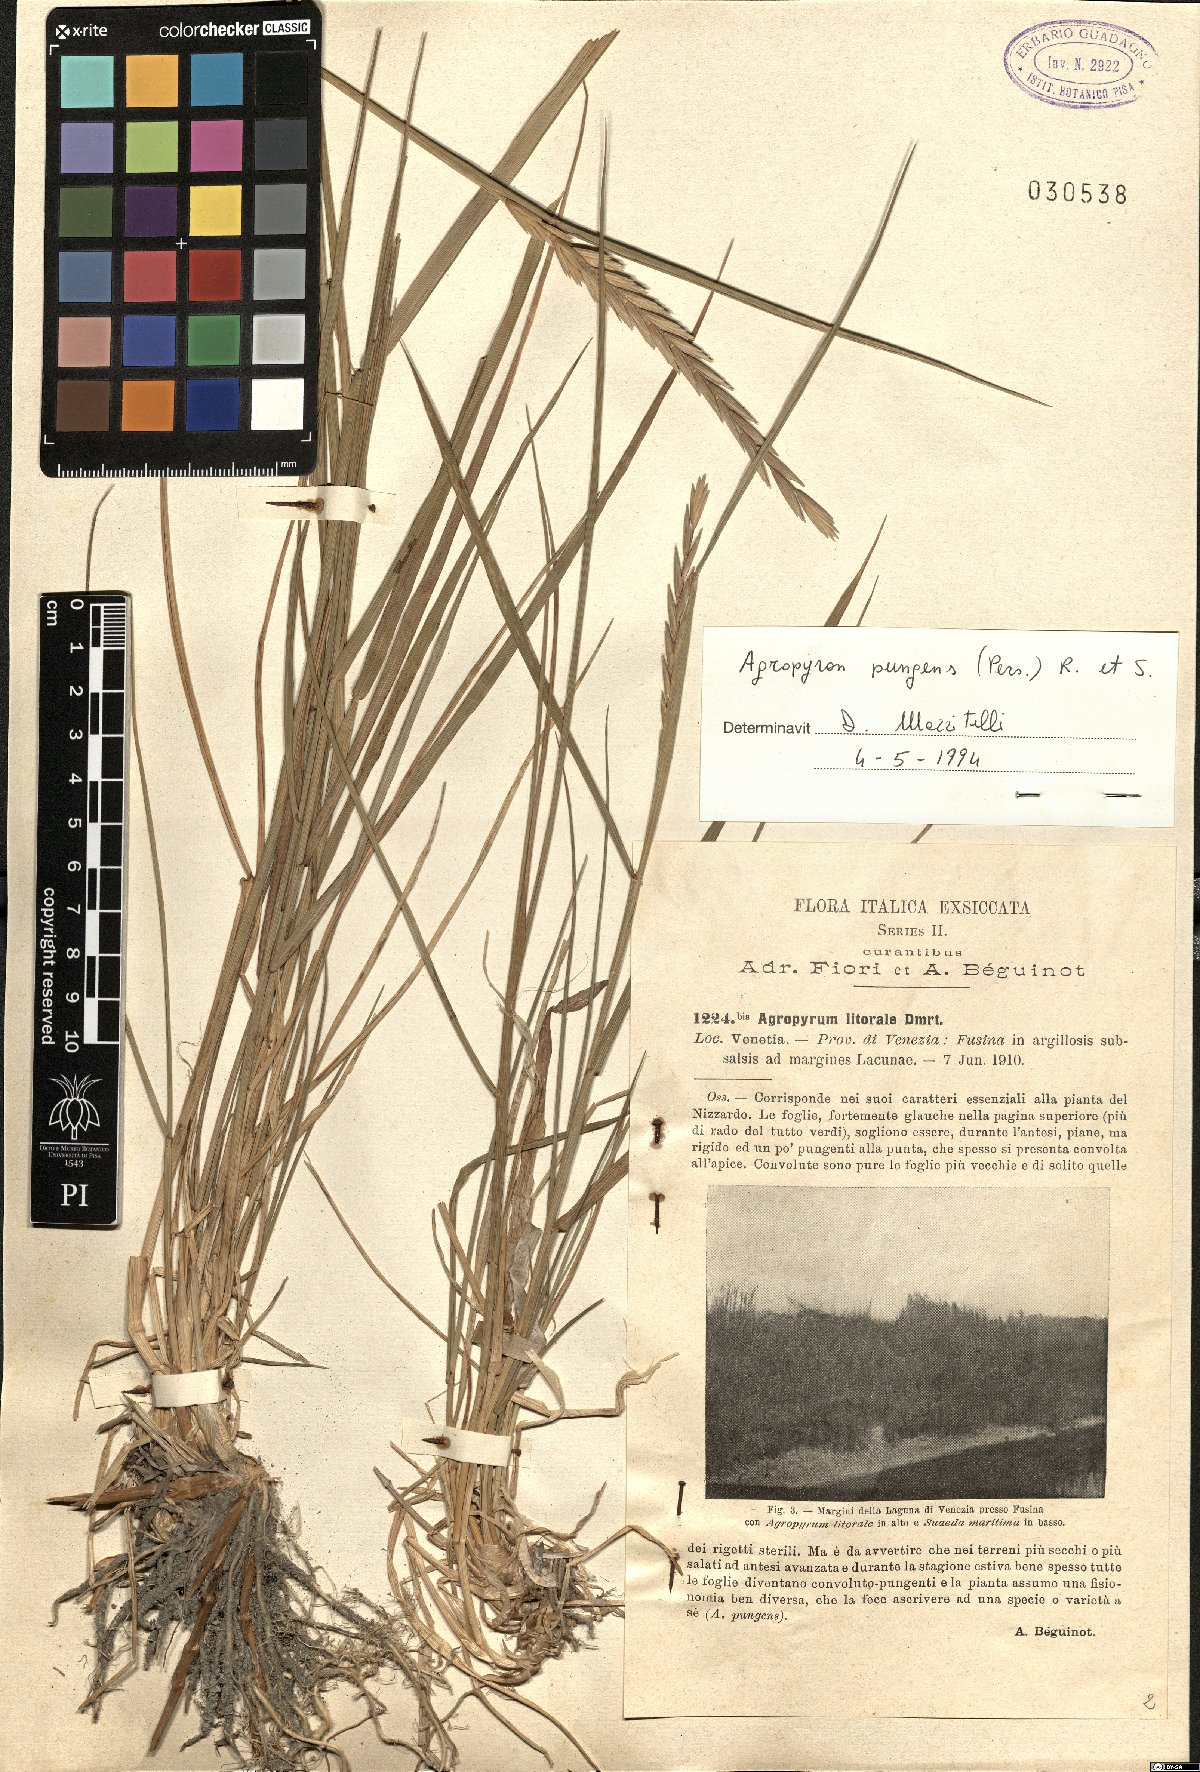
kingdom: Plantae
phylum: Tracheophyta
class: Liliopsida
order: Poales
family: Poaceae
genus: Elymus
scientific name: Elymus pungens
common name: Sea couch
